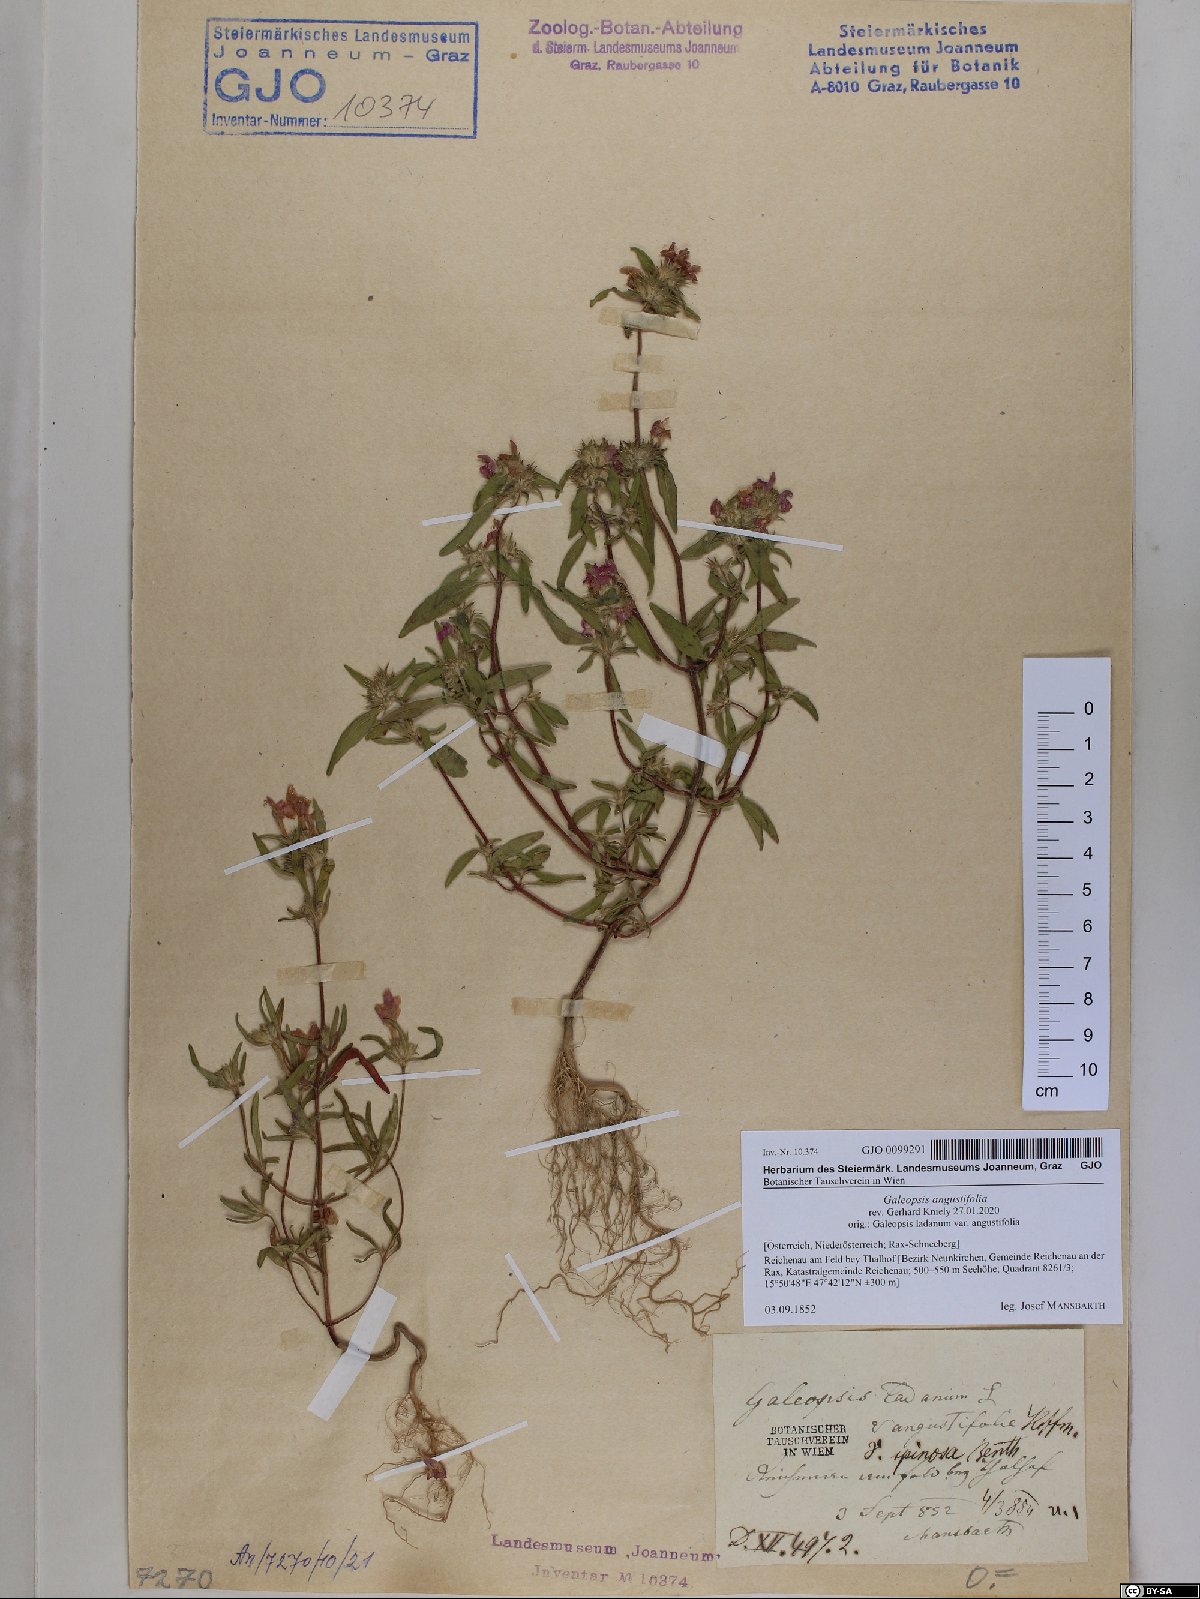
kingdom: Plantae
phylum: Tracheophyta
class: Magnoliopsida
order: Lamiales
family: Lamiaceae
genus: Galeopsis
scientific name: Galeopsis angustifolia
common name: Red hemp-nettle
